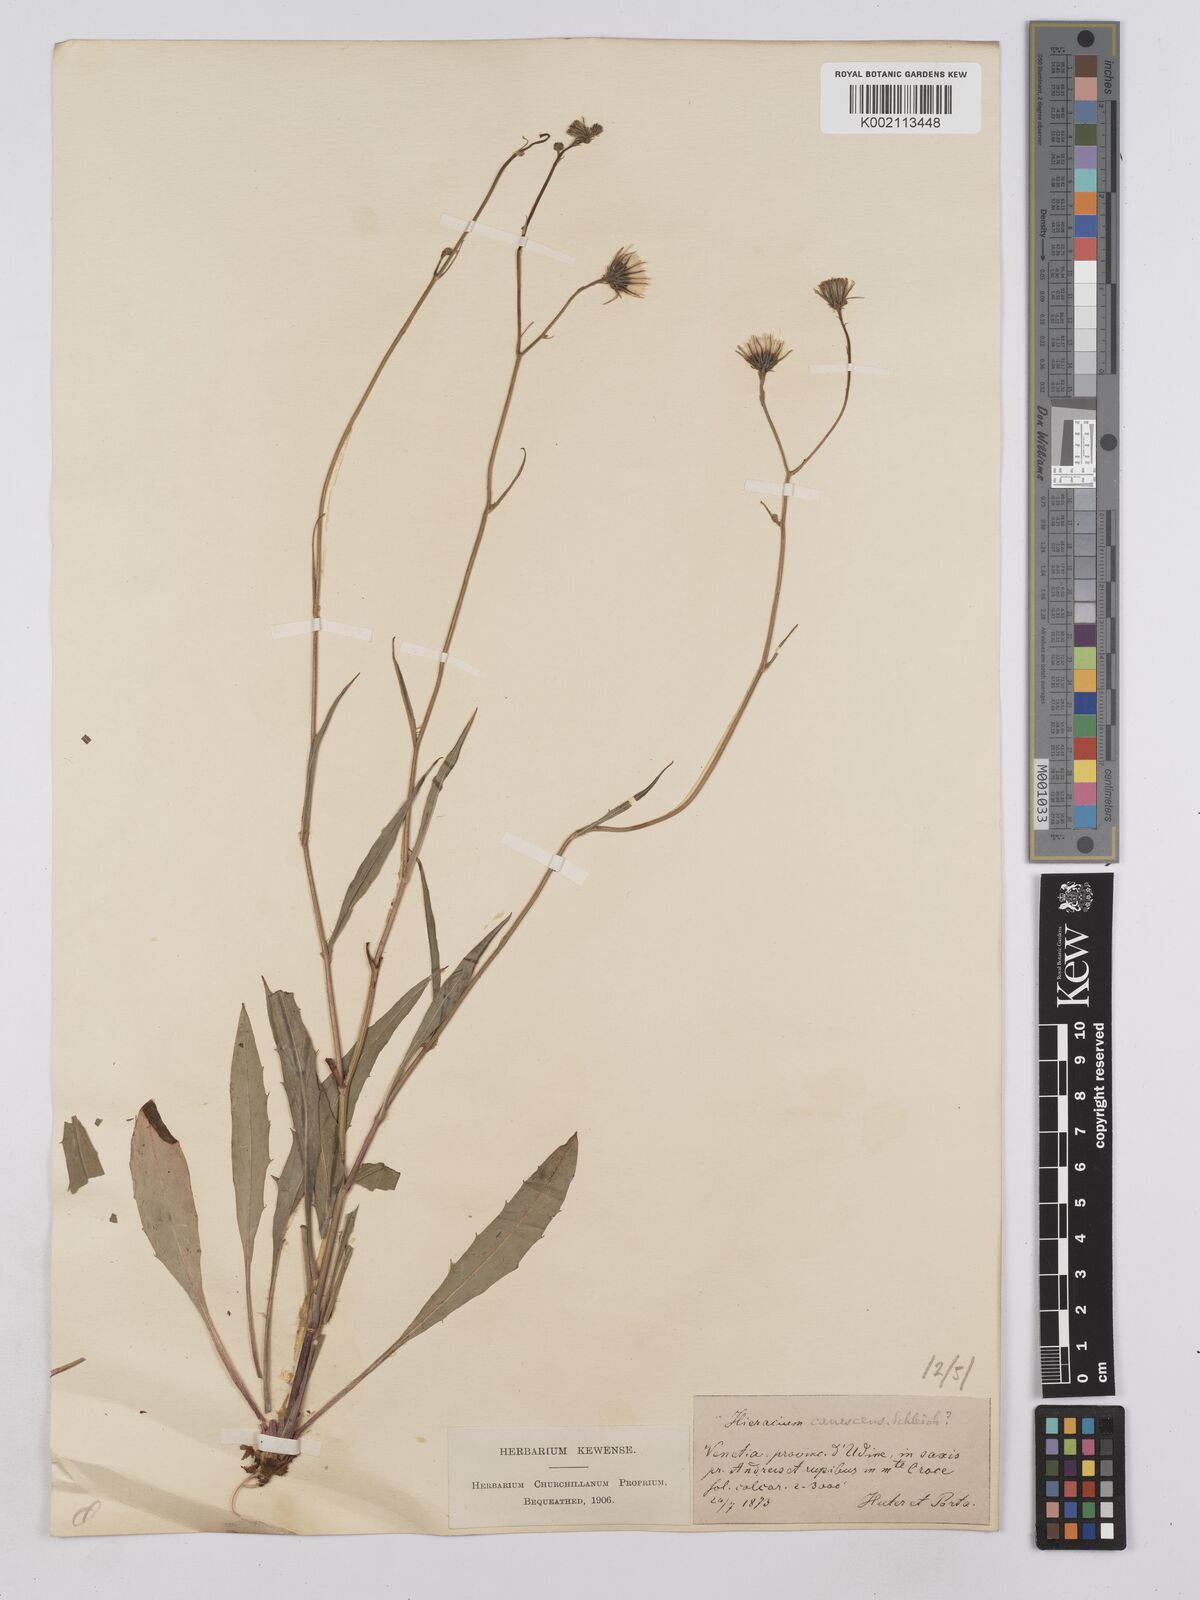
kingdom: Plantae
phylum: Tracheophyta
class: Magnoliopsida
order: Asterales
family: Asteraceae
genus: Hieracium
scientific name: Hieracium calcareum
